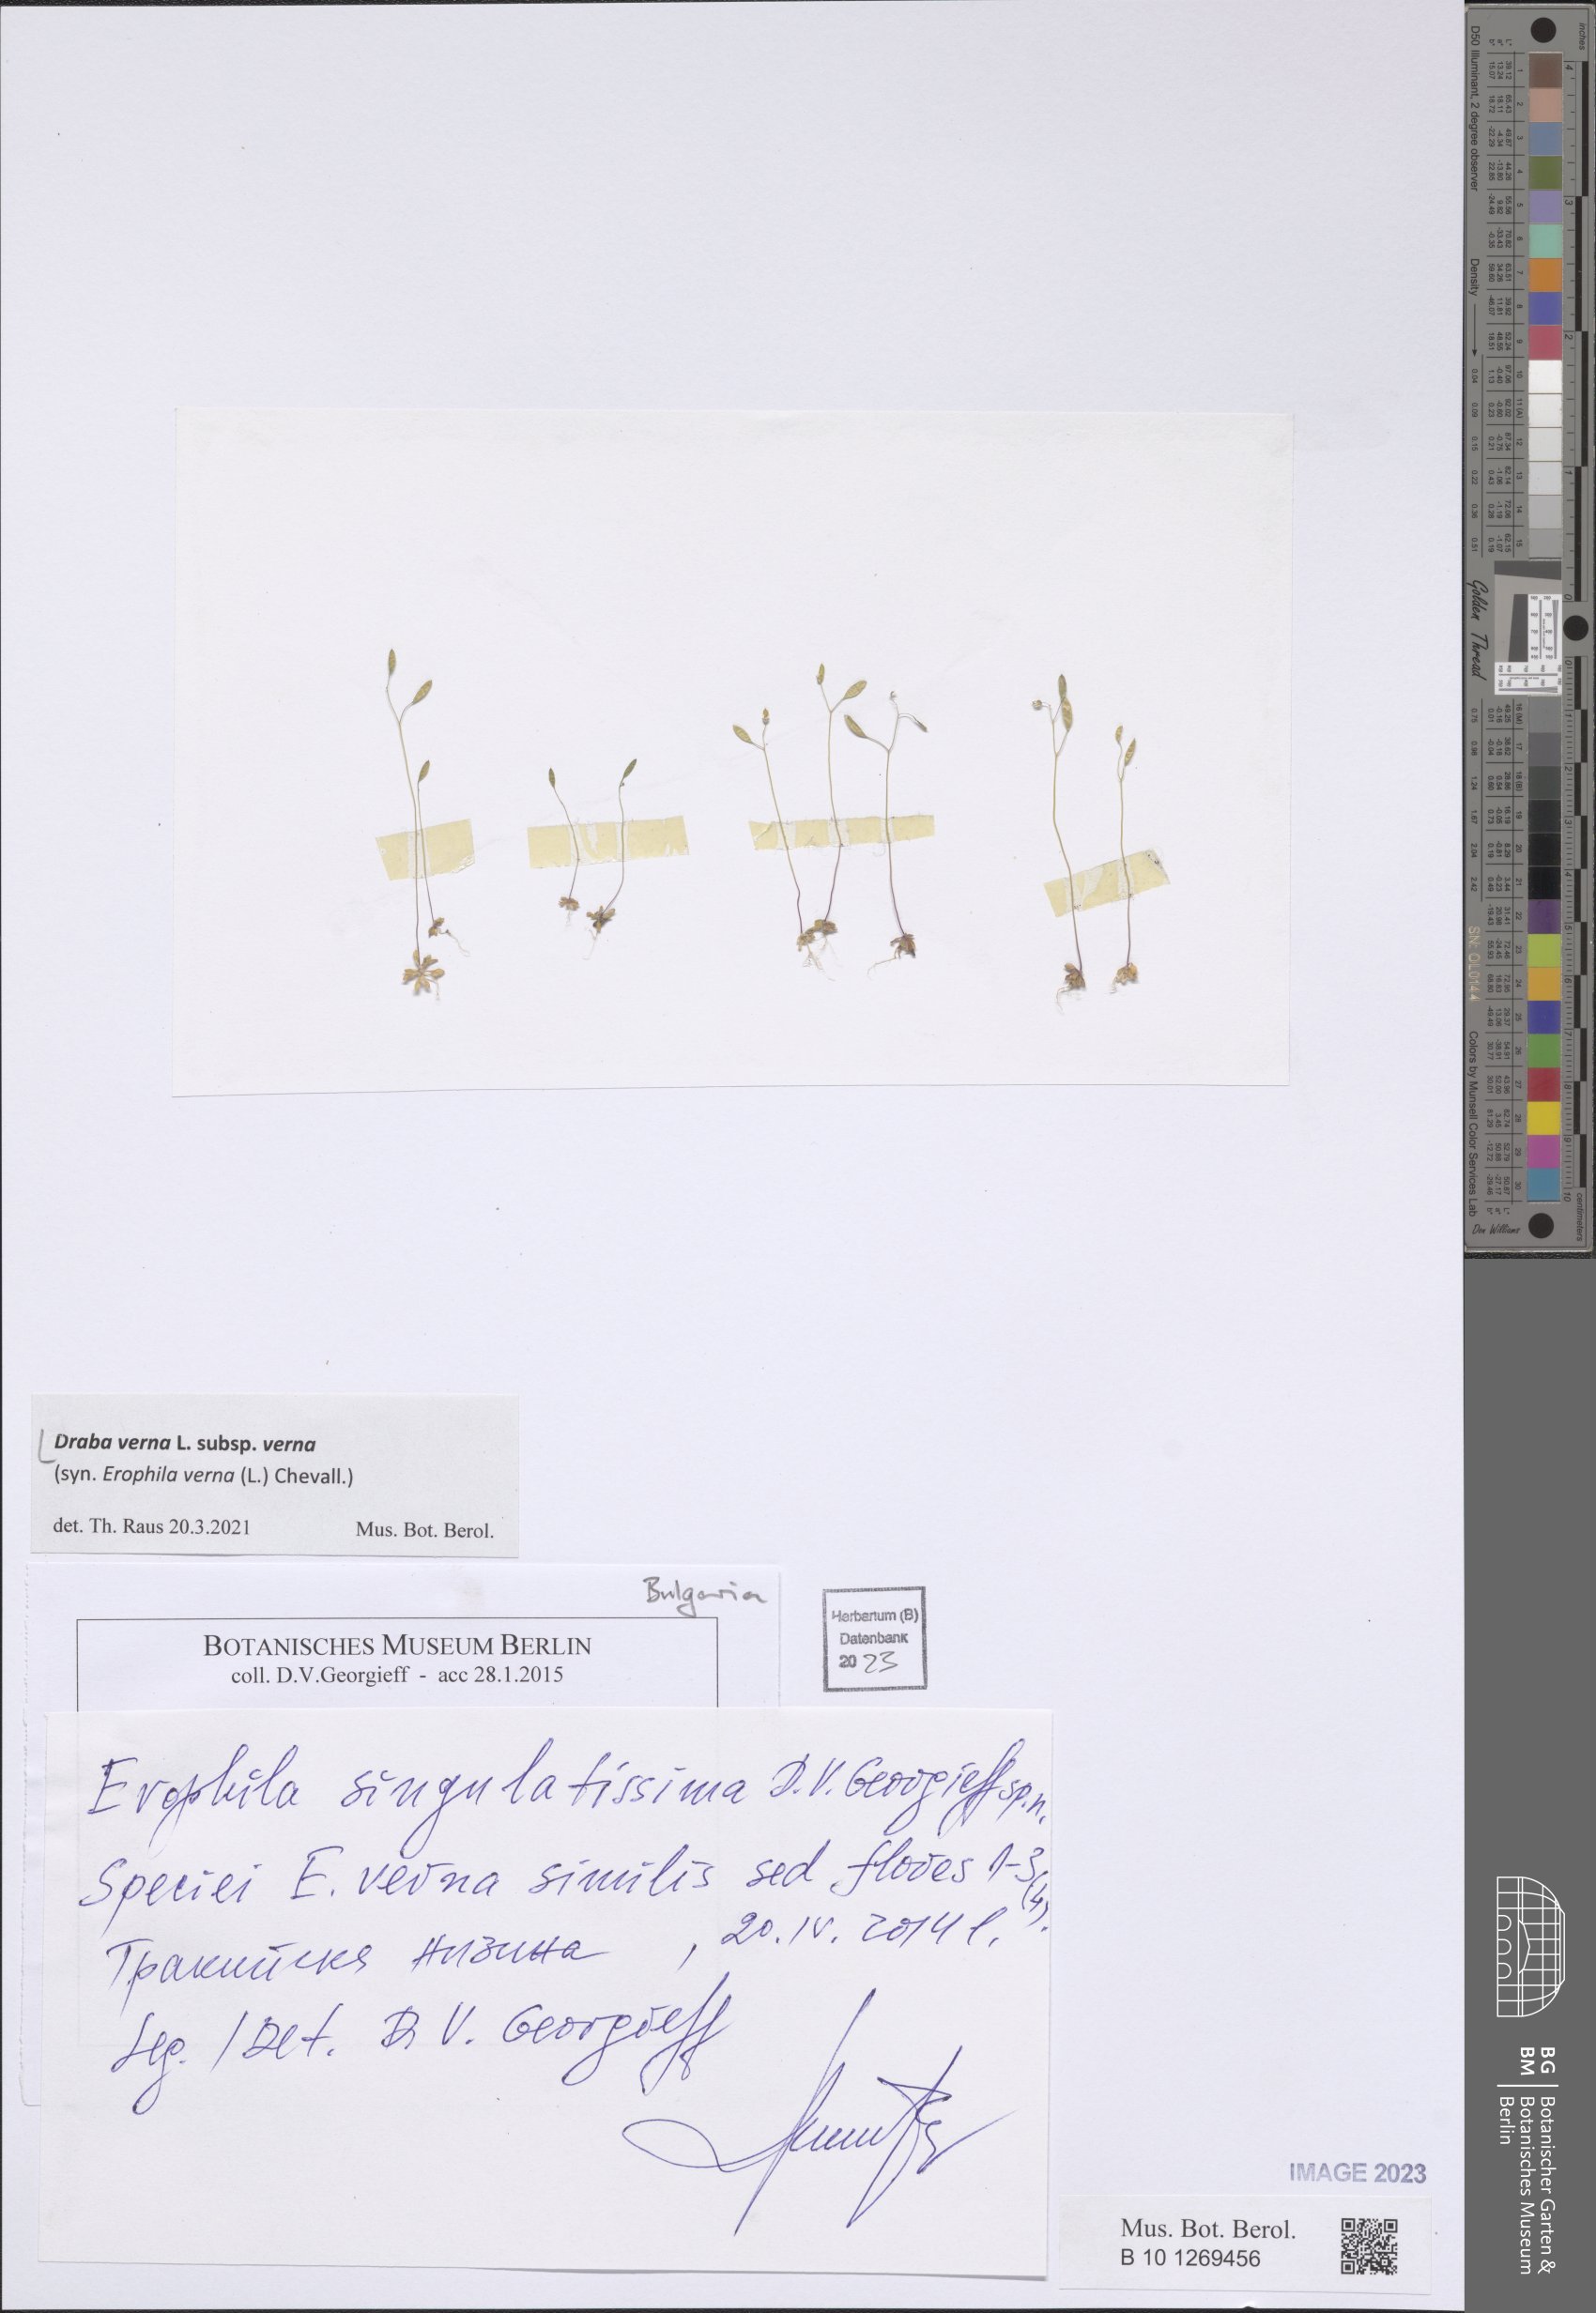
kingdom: Plantae
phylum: Tracheophyta
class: Magnoliopsida
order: Brassicales
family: Brassicaceae
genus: Draba
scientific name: Draba verna
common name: Spring draba
